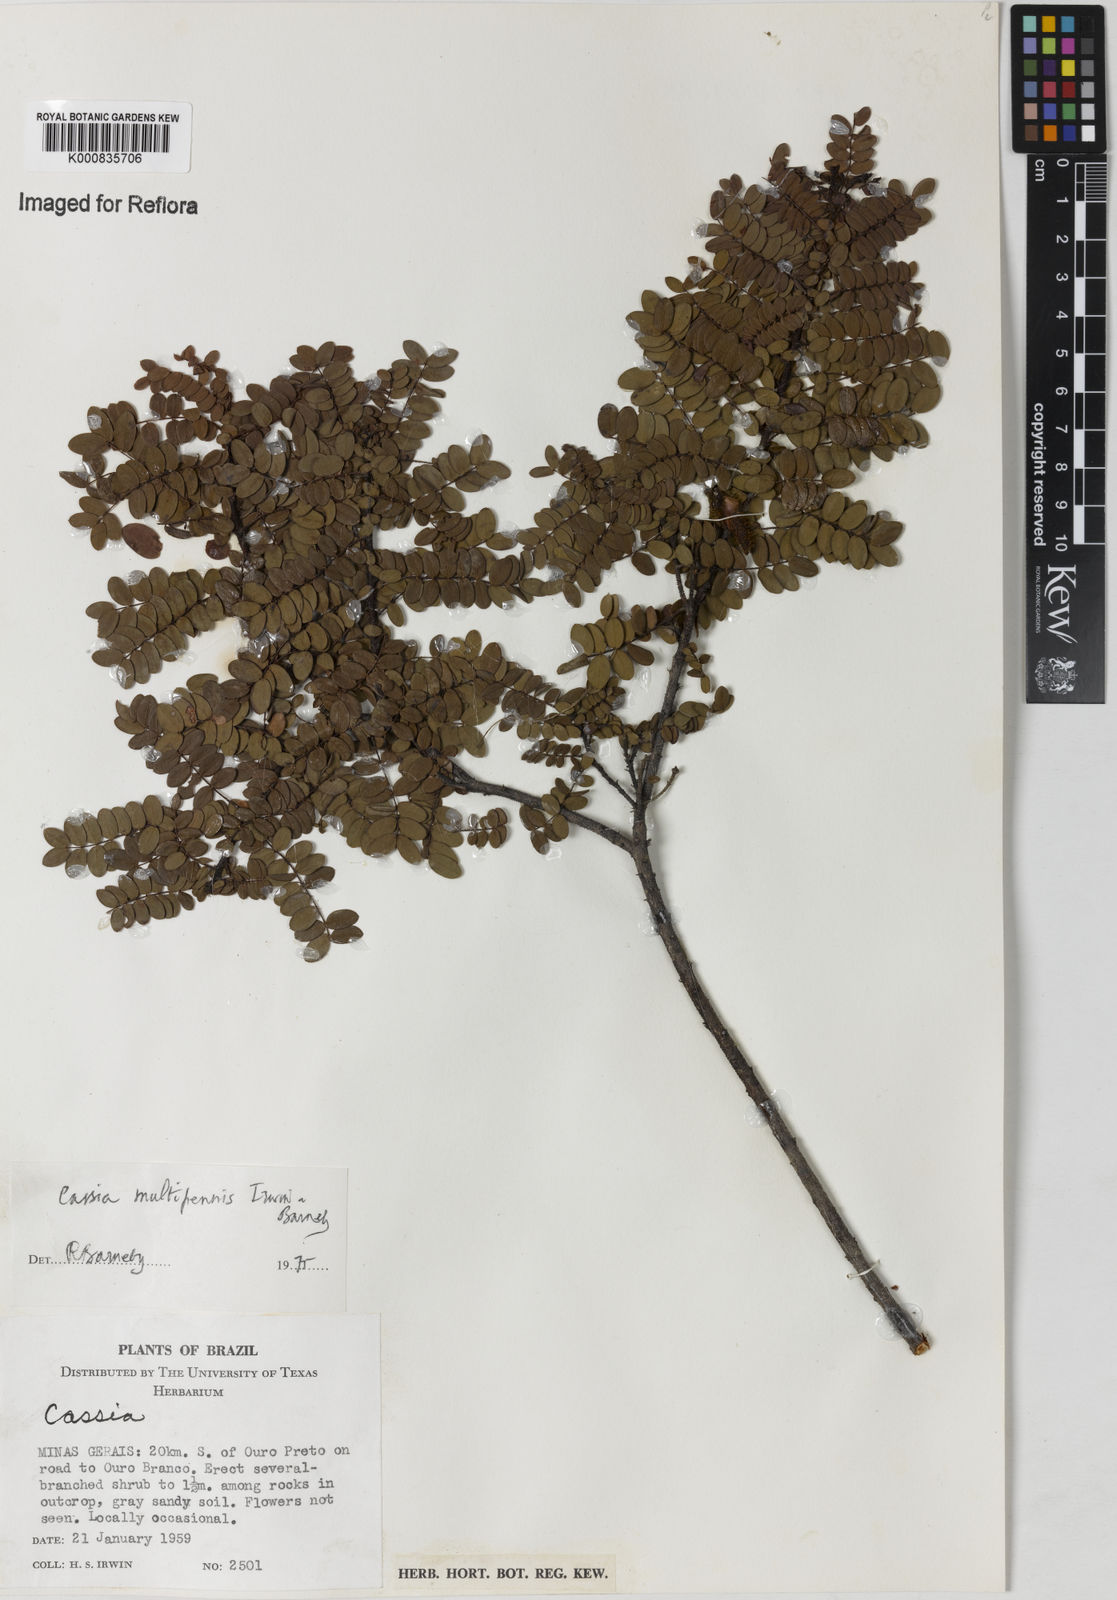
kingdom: Plantae
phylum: Tracheophyta
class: Magnoliopsida
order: Fabales
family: Fabaceae
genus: Chamaecrista
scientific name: Chamaecrista multipennis
